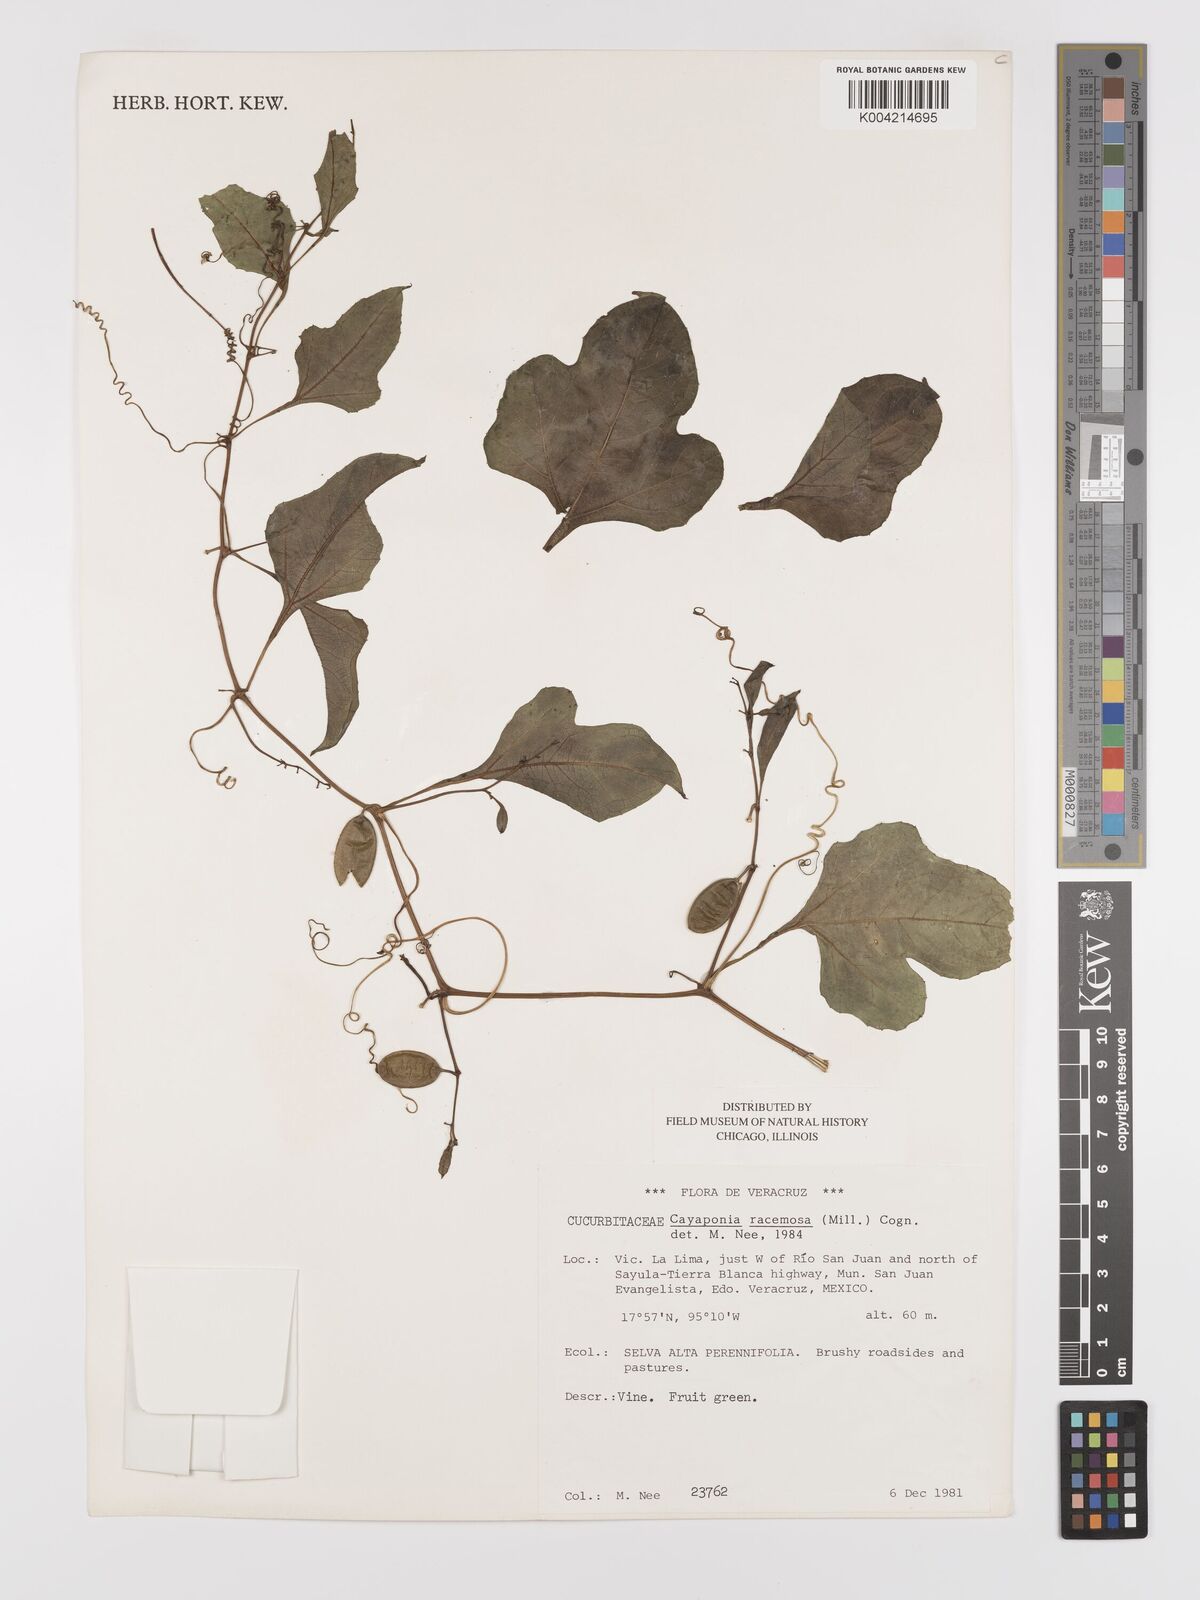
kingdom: Plantae
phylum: Tracheophyta
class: Magnoliopsida
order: Cucurbitales
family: Cucurbitaceae
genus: Cayaponia
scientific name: Cayaponia racemosa
